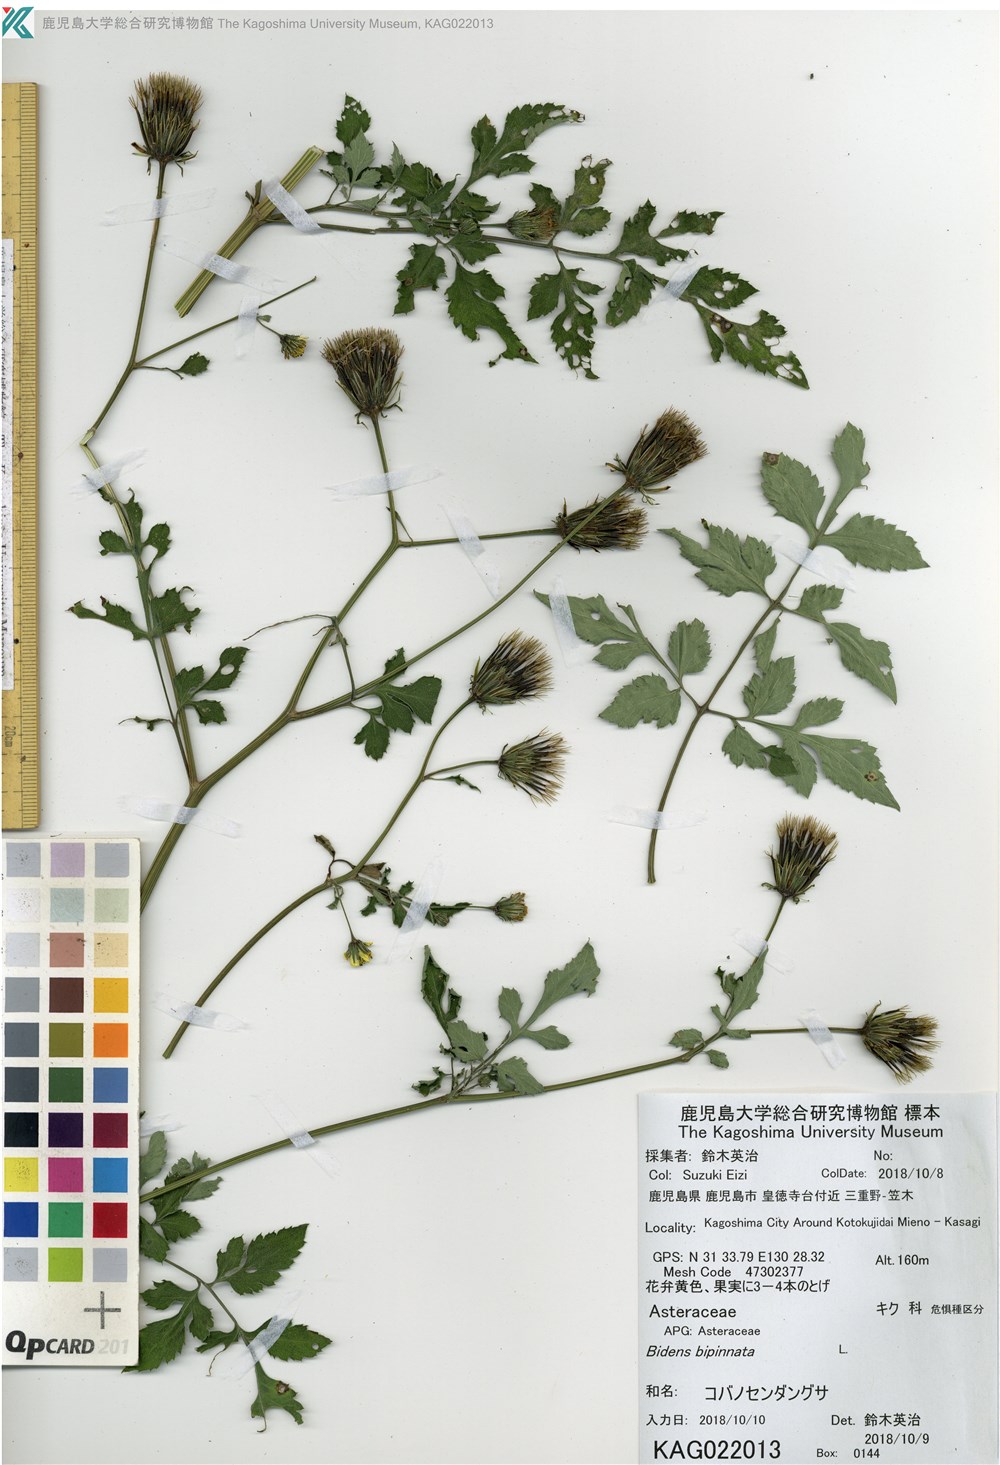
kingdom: Plantae
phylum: Tracheophyta
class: Magnoliopsida
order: Asterales
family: Asteraceae
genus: Bidens
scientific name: Bidens bipinnata
